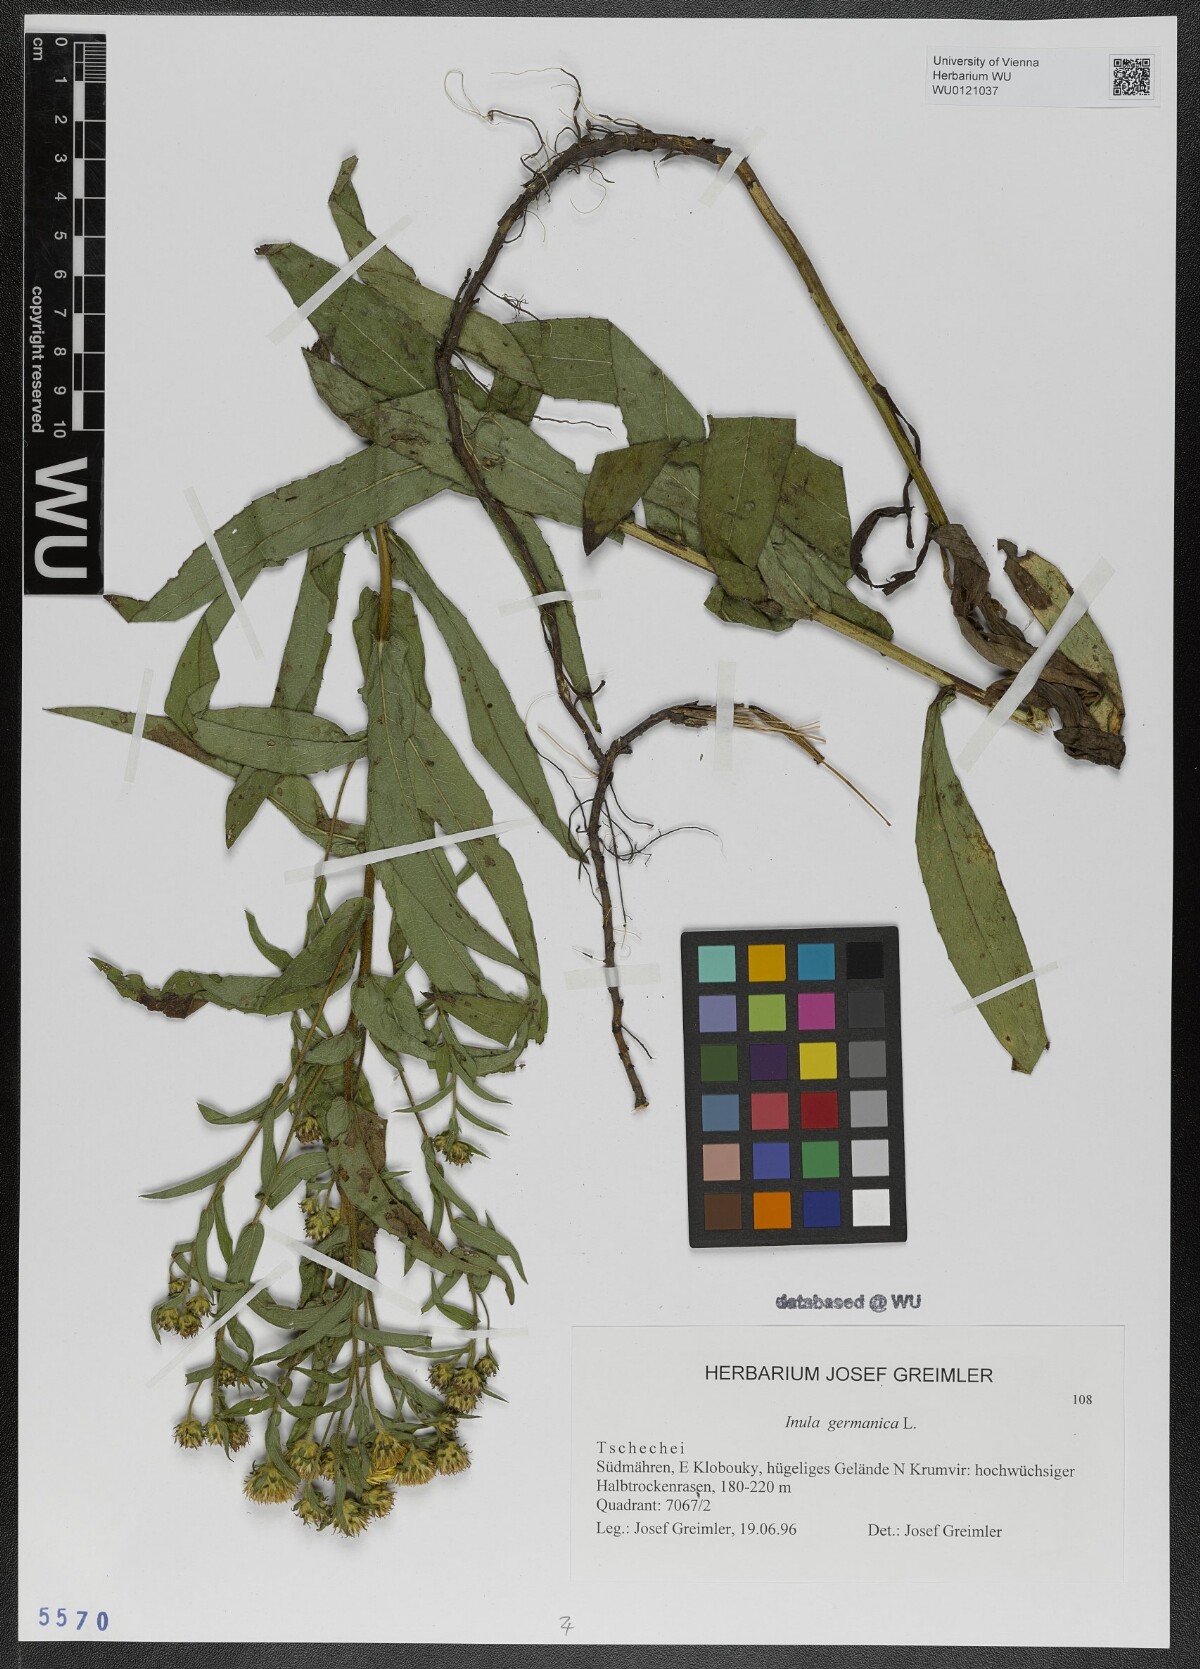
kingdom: Plantae
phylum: Tracheophyta
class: Magnoliopsida
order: Asterales
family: Asteraceae
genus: Pentanema
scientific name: Pentanema germanicum
